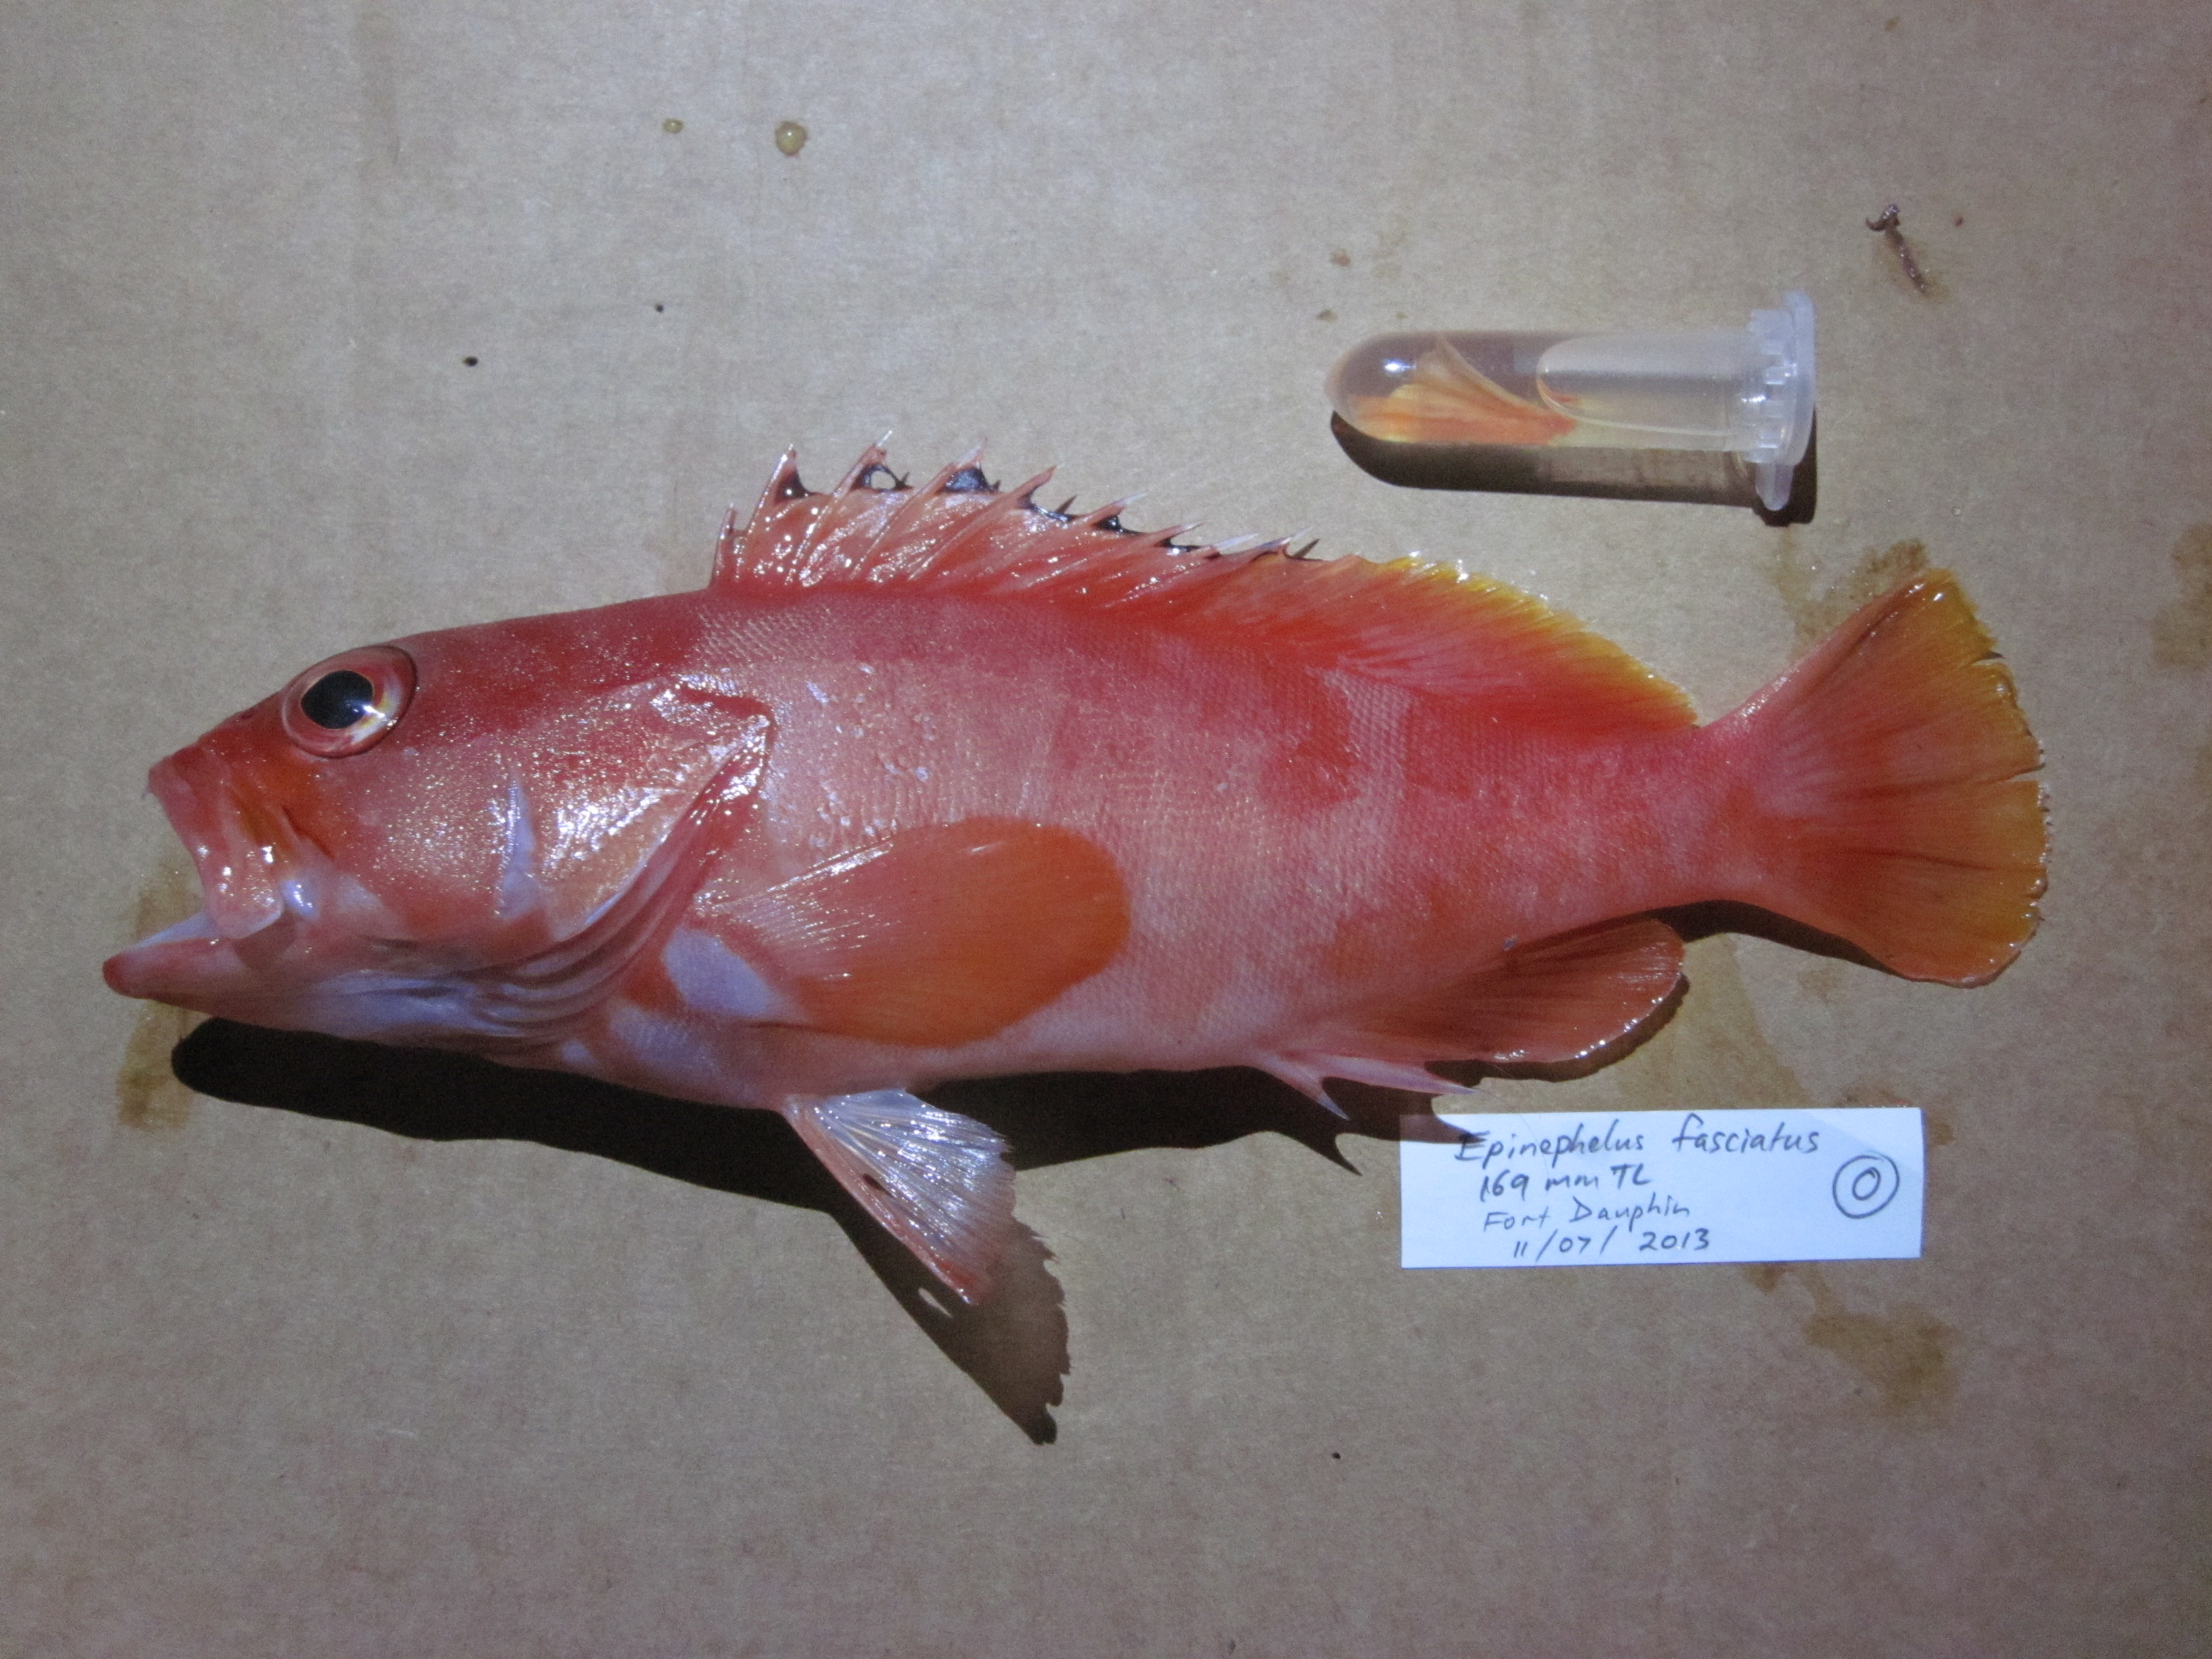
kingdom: Animalia
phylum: Chordata
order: Perciformes
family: Serranidae
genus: Epinephelus
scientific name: Epinephelus fasciatus
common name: Blacktip grouper
